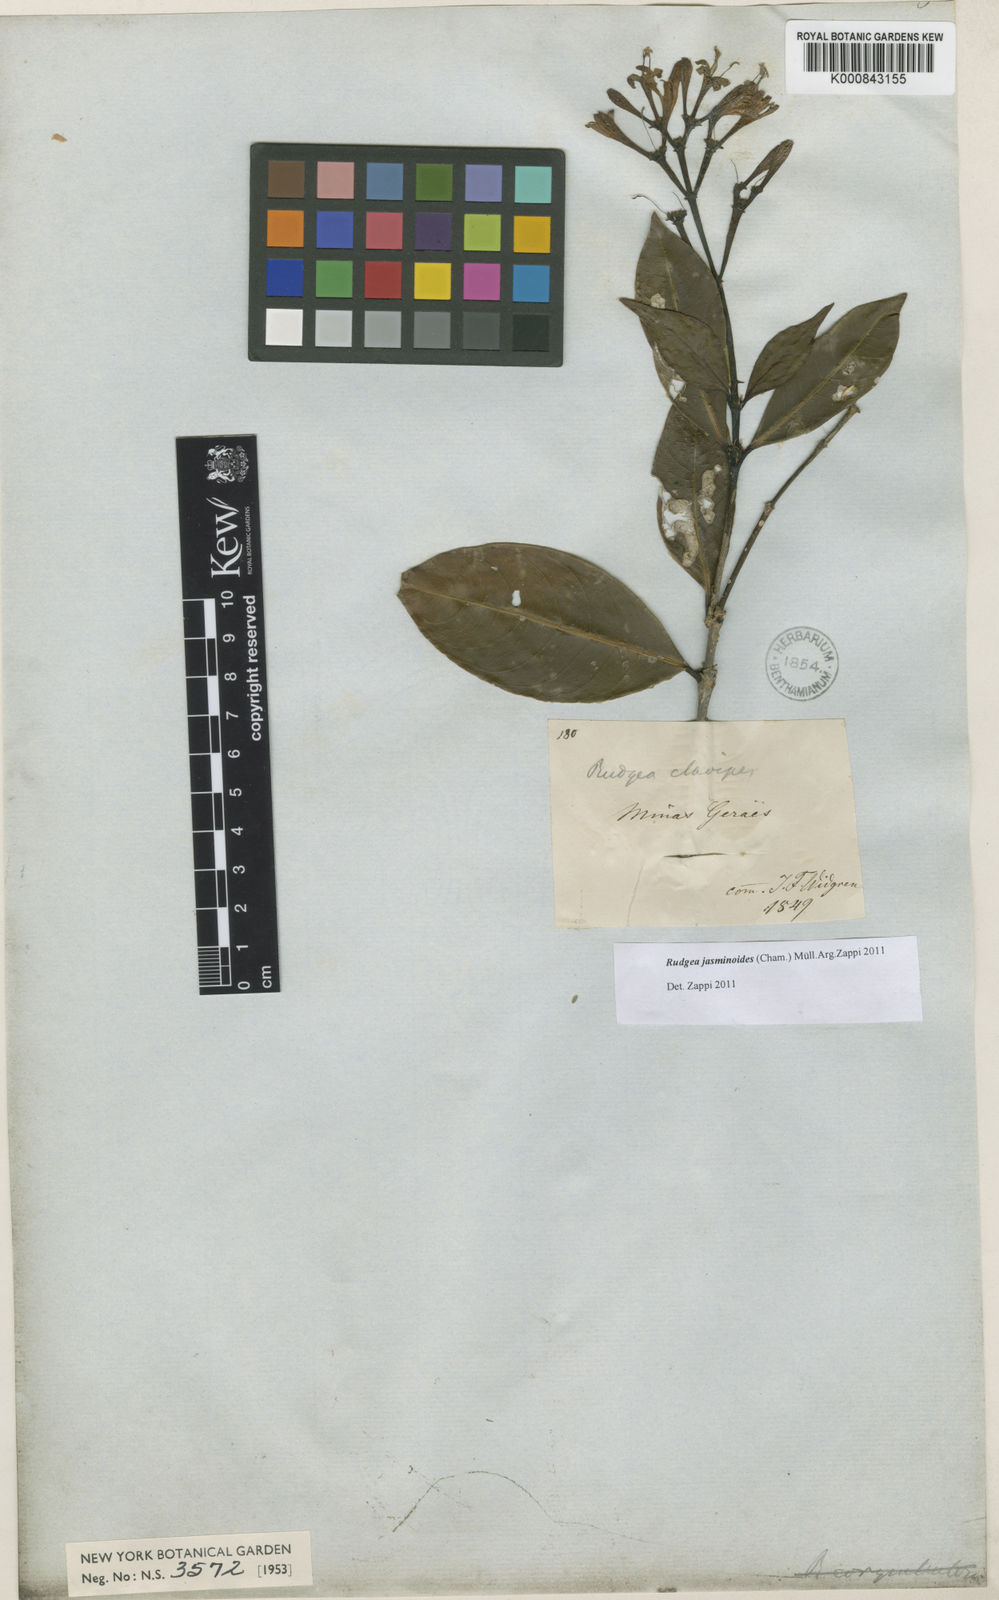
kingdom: Plantae
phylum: Tracheophyta
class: Magnoliopsida
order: Gentianales
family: Rubiaceae
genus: Rudgea
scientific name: Rudgea
